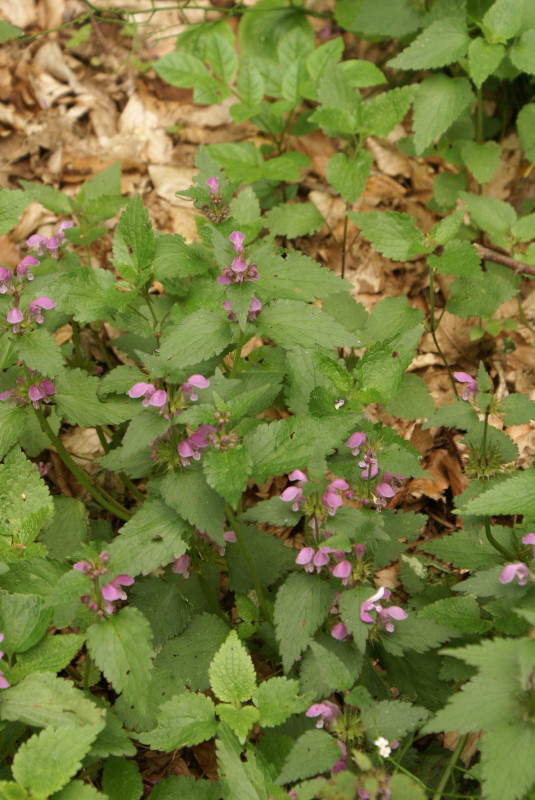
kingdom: Plantae
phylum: Tracheophyta
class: Magnoliopsida
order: Lamiales
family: Lamiaceae
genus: Lamium
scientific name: Lamium maculatum
